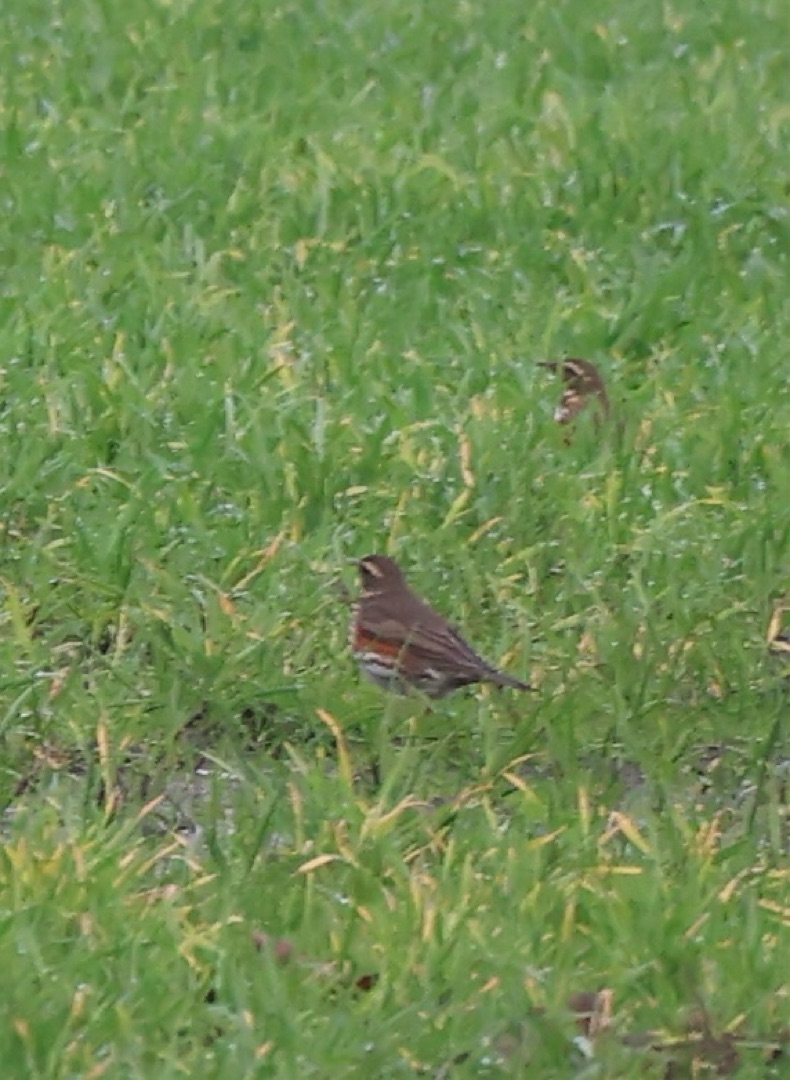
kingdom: Animalia
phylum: Chordata
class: Aves
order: Passeriformes
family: Turdidae
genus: Turdus
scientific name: Turdus iliacus
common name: Vindrossel
